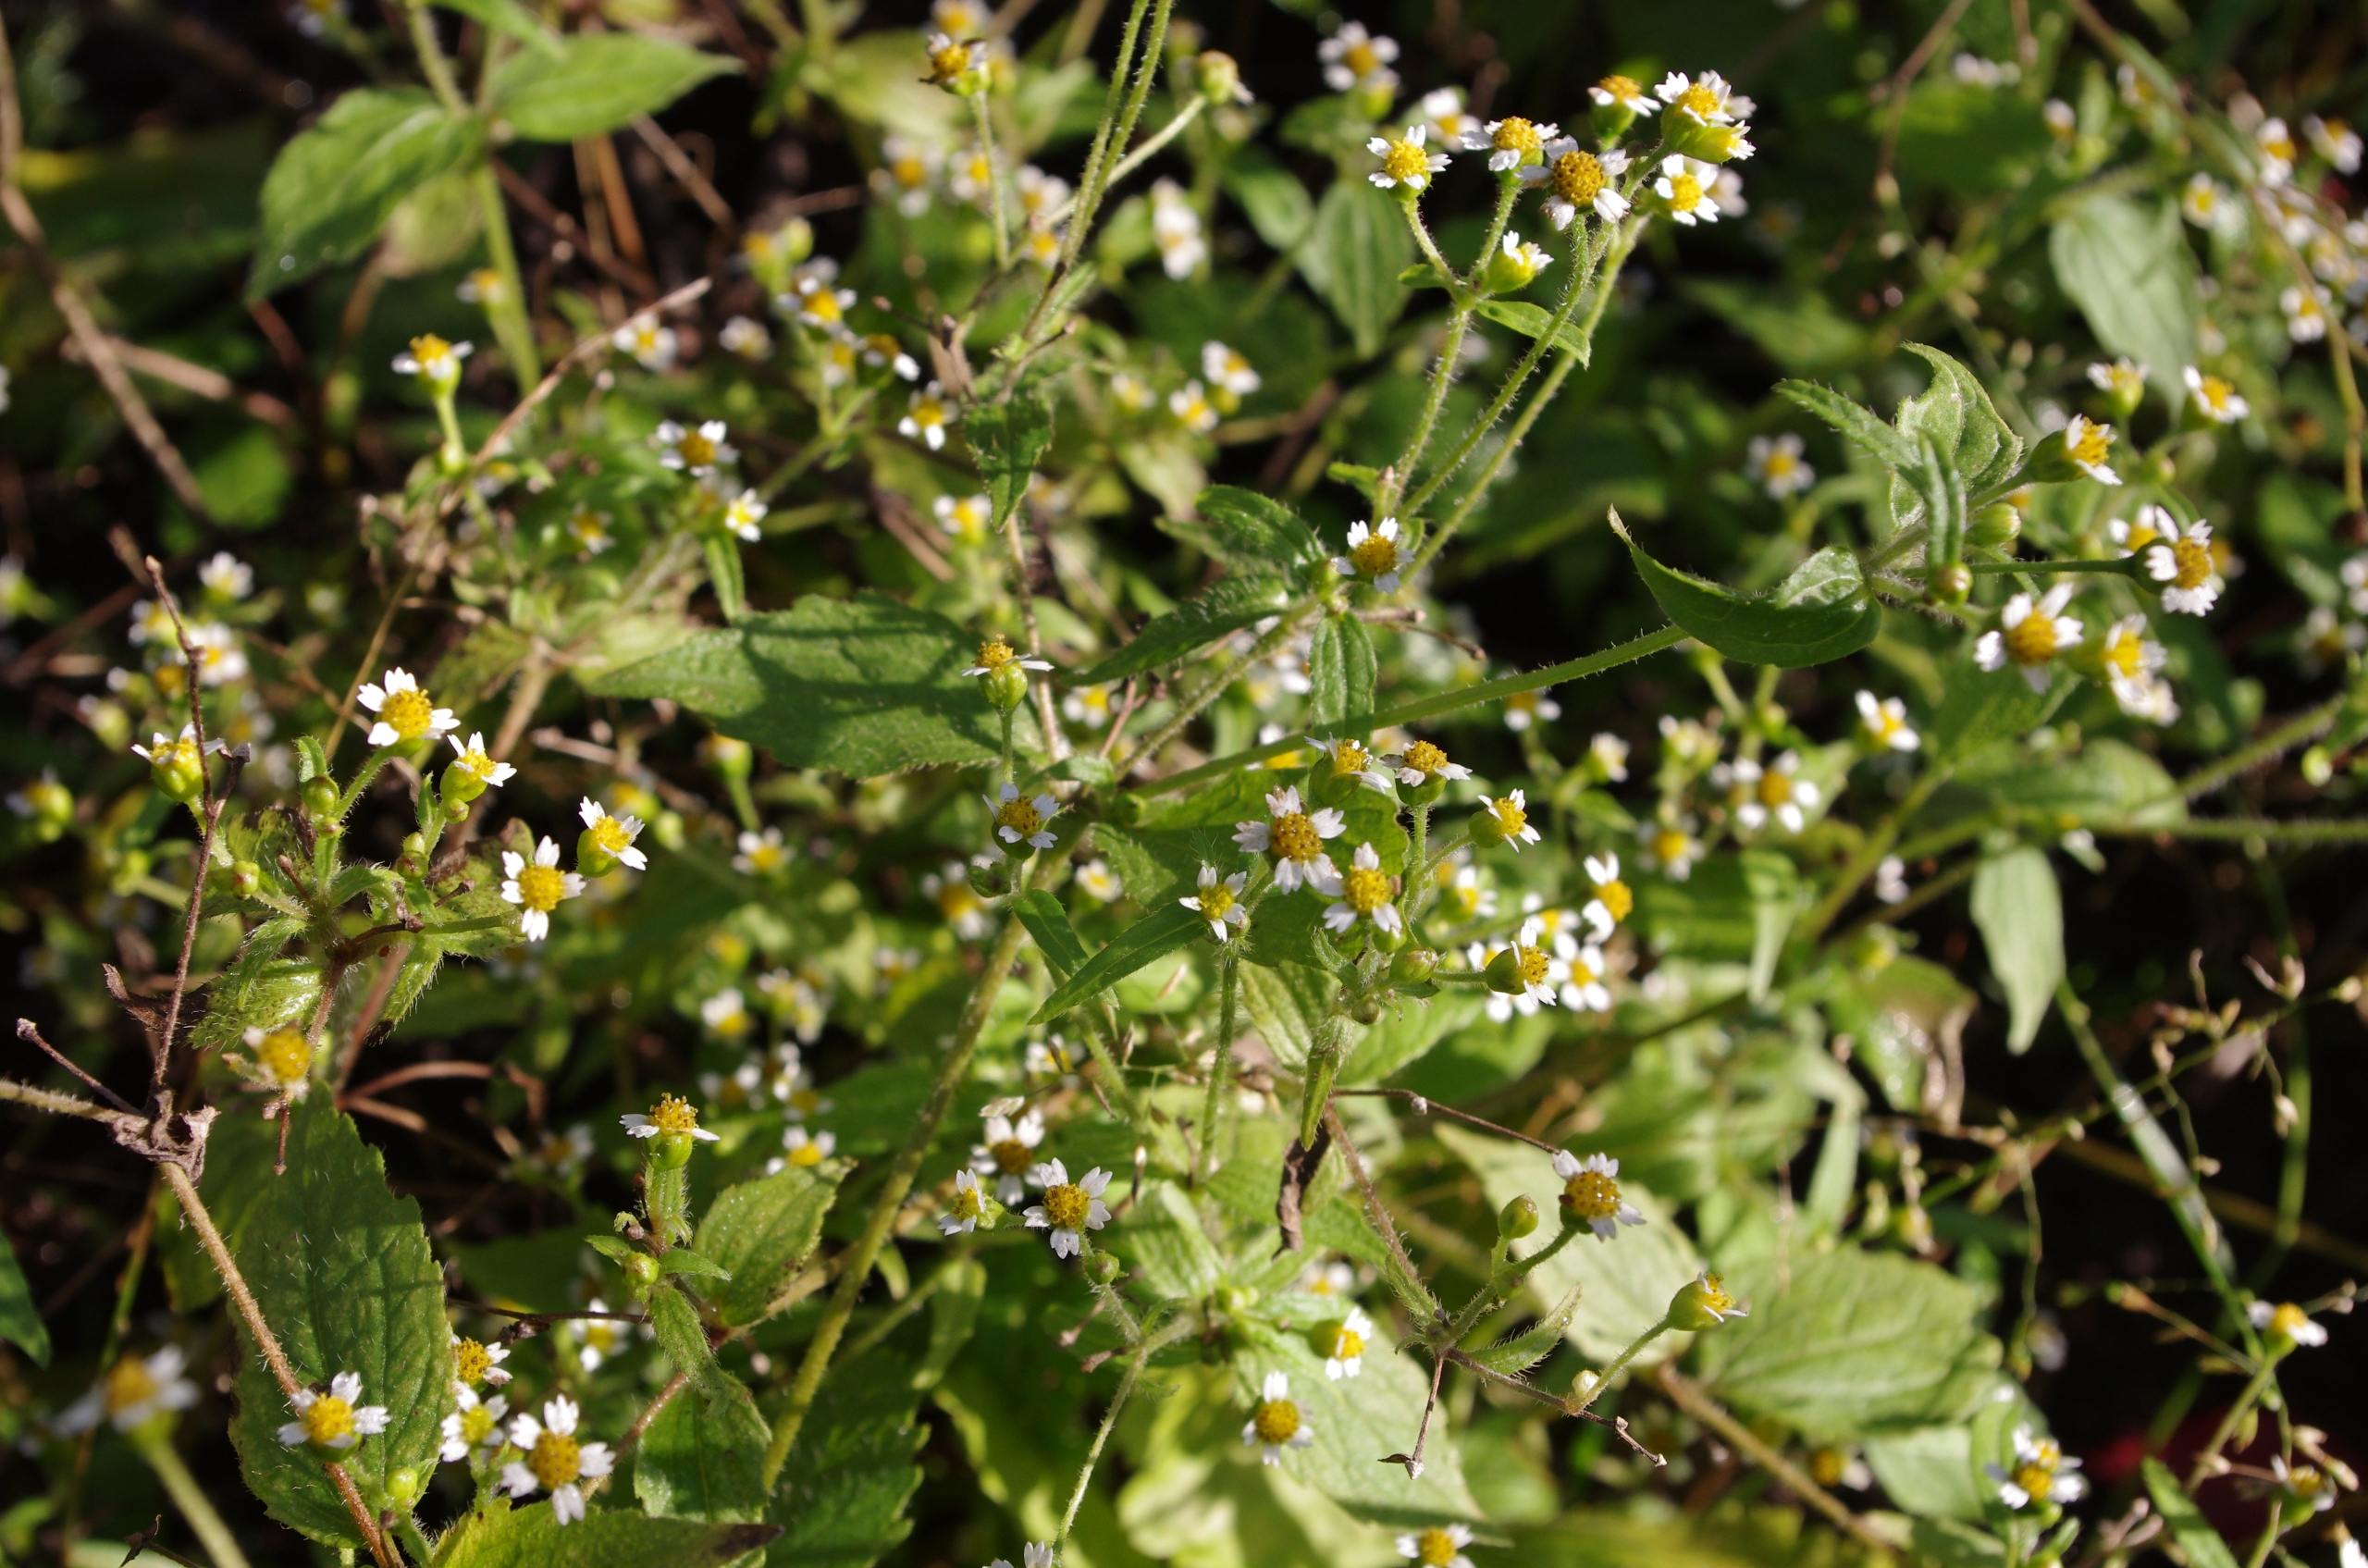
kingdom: Plantae
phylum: Tracheophyta
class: Magnoliopsida
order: Asterales
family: Asteraceae
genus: Galinsoga
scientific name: Galinsoga quadriradiata
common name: Kirtel-kortstråle
